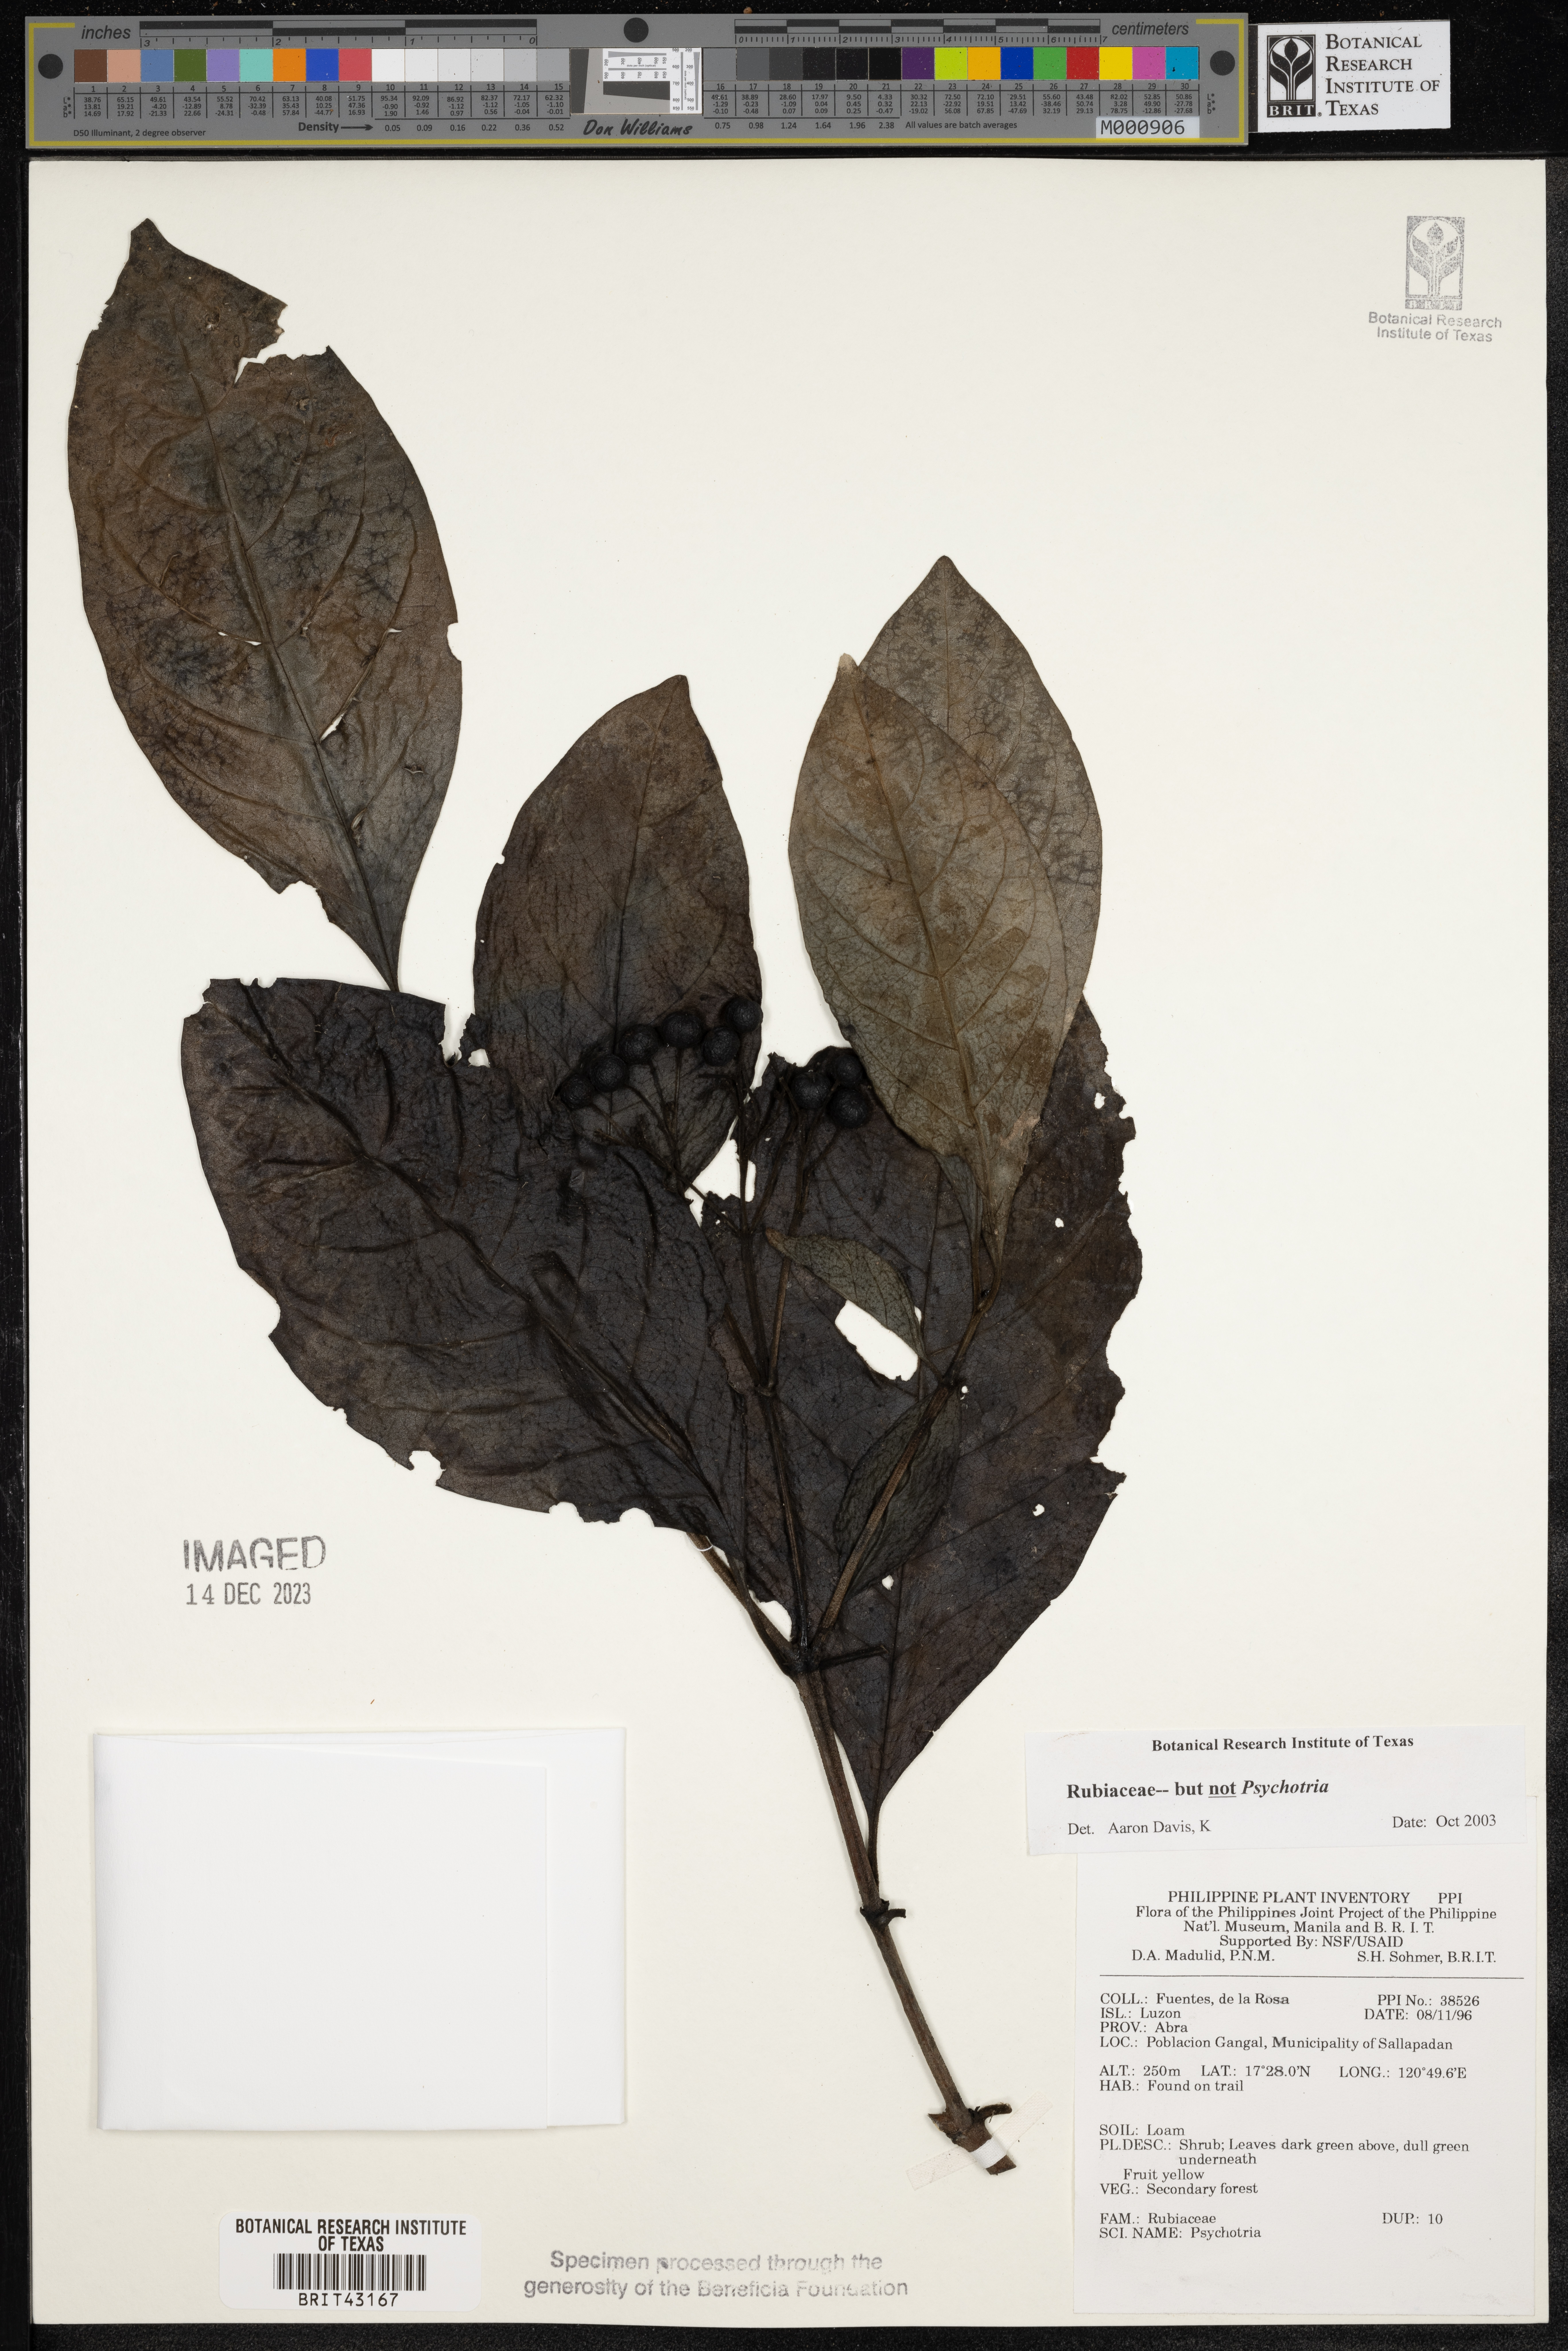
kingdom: Plantae
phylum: Tracheophyta
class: Magnoliopsida
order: Gentianales
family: Rubiaceae
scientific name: Rubiaceae
